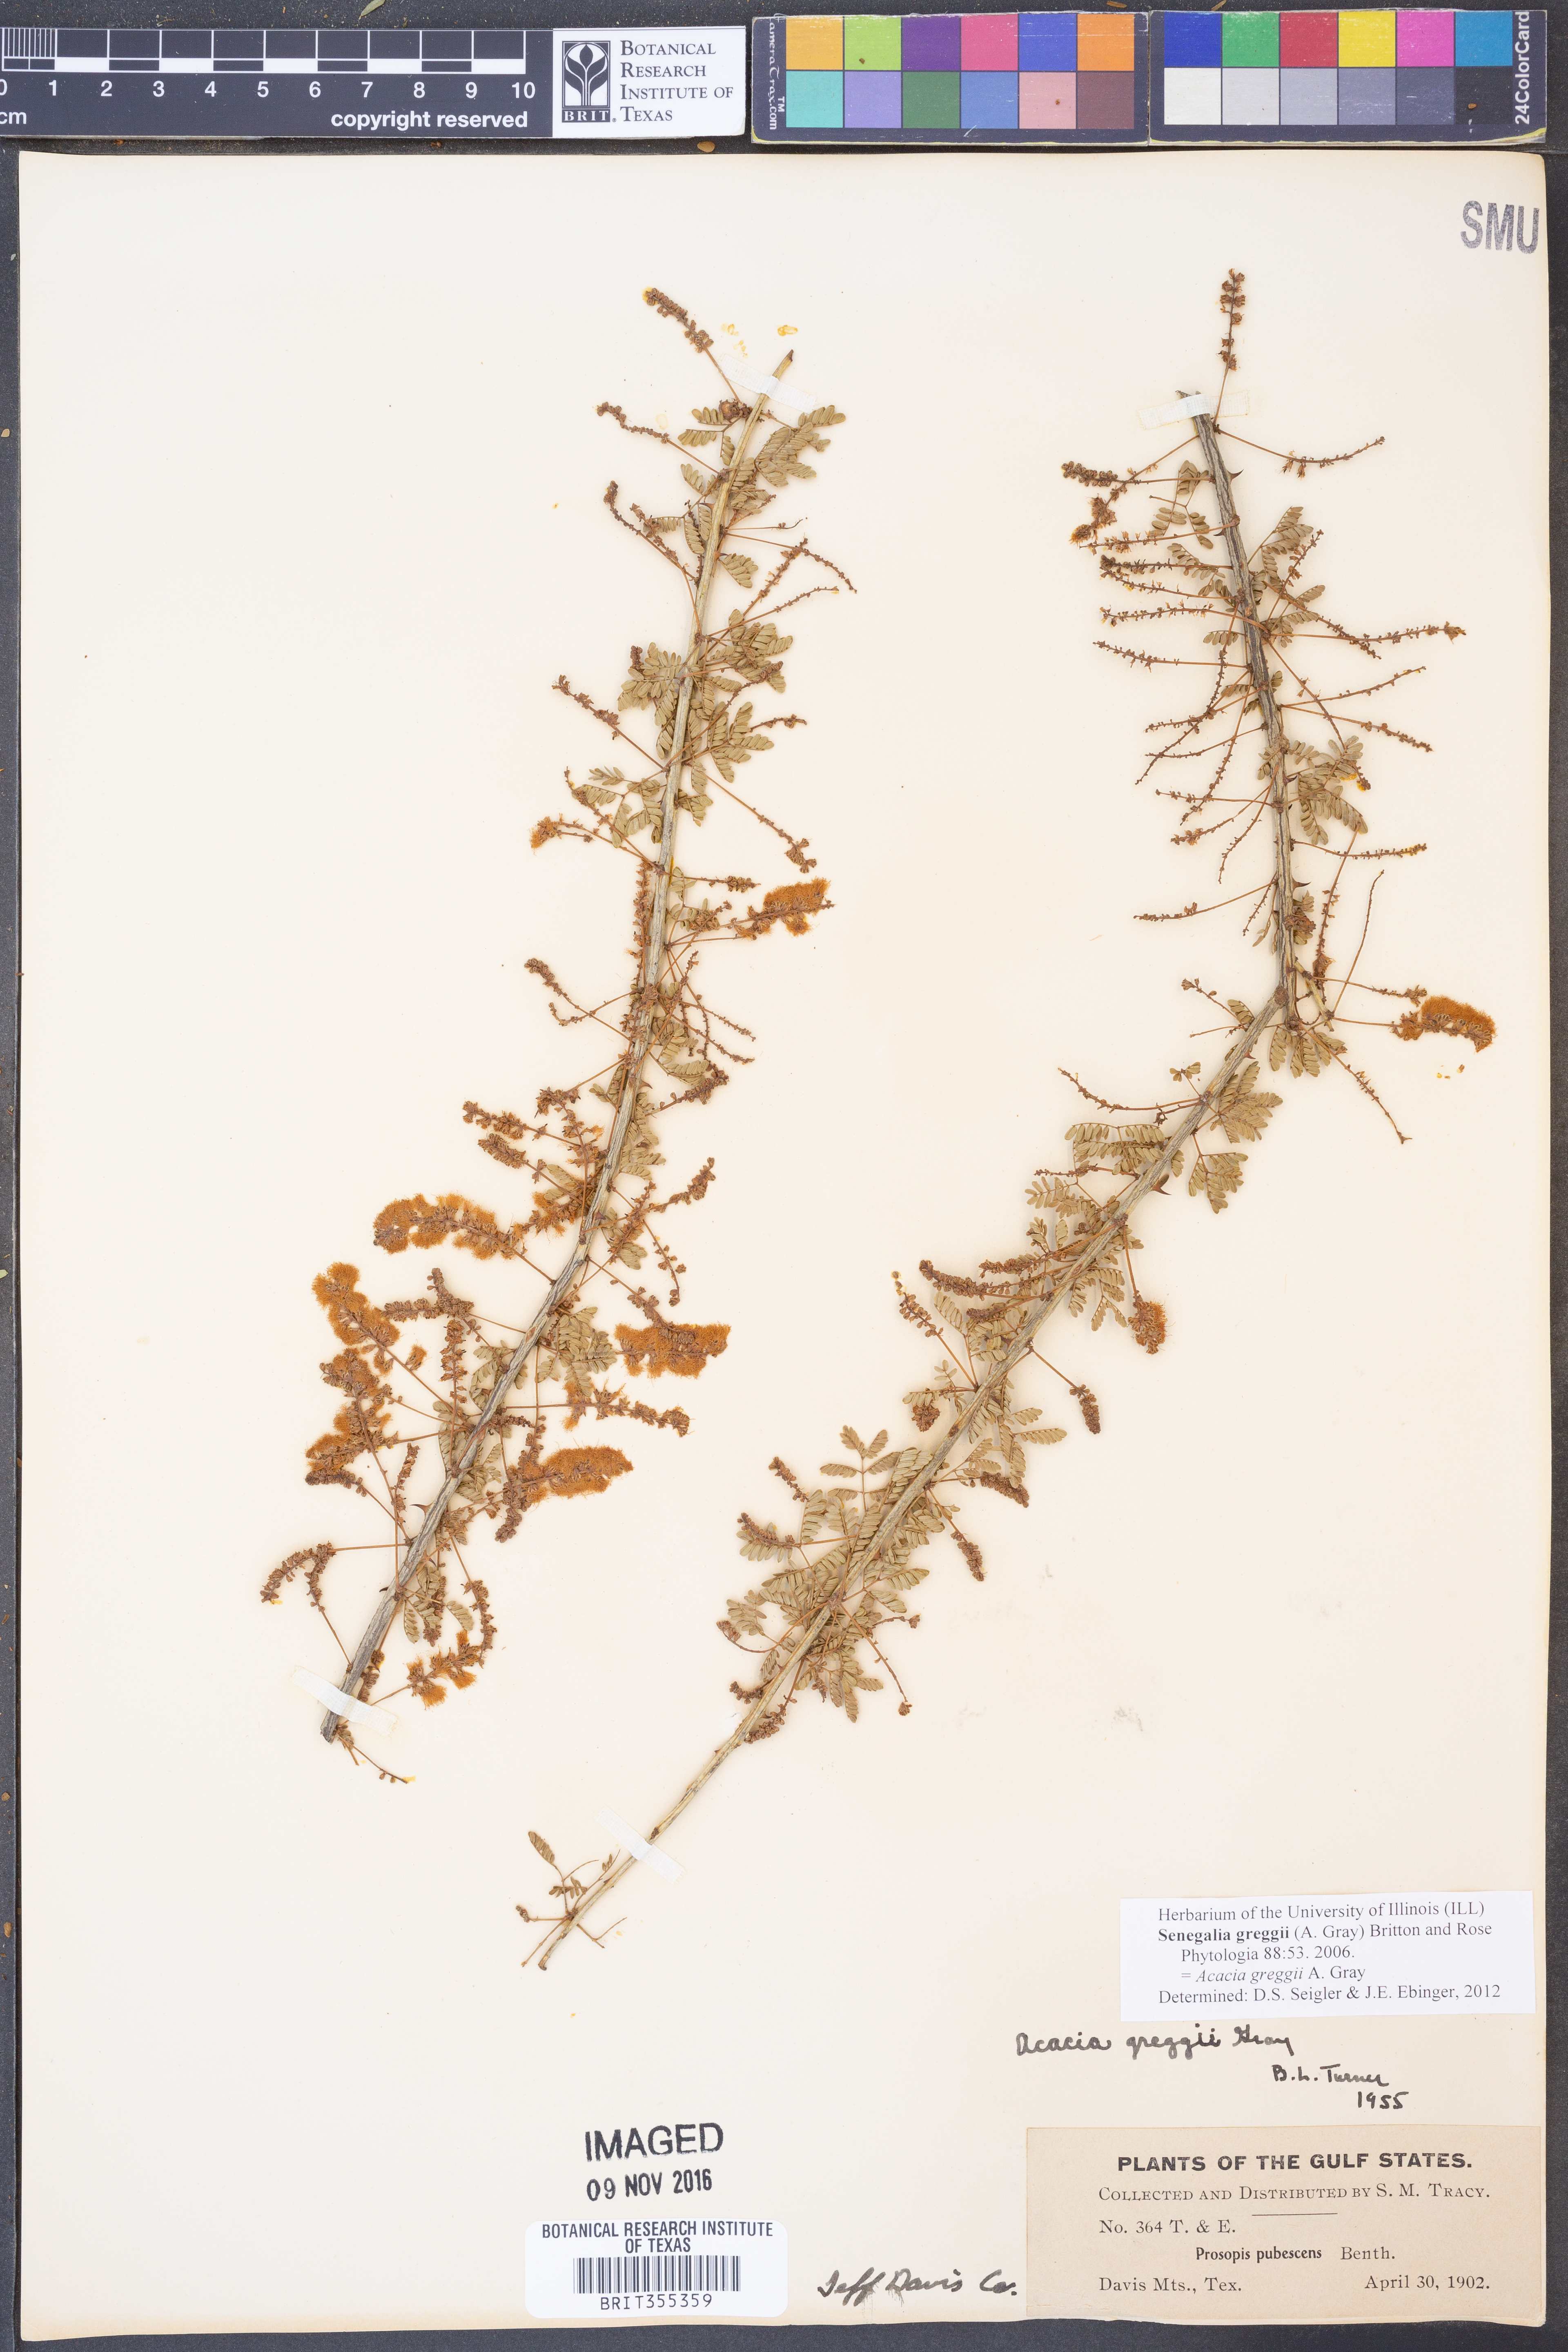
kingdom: Plantae
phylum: Tracheophyta
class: Magnoliopsida
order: Fabales
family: Fabaceae
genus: Senegalia
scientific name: Senegalia greggii
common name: Texas-mimosa
